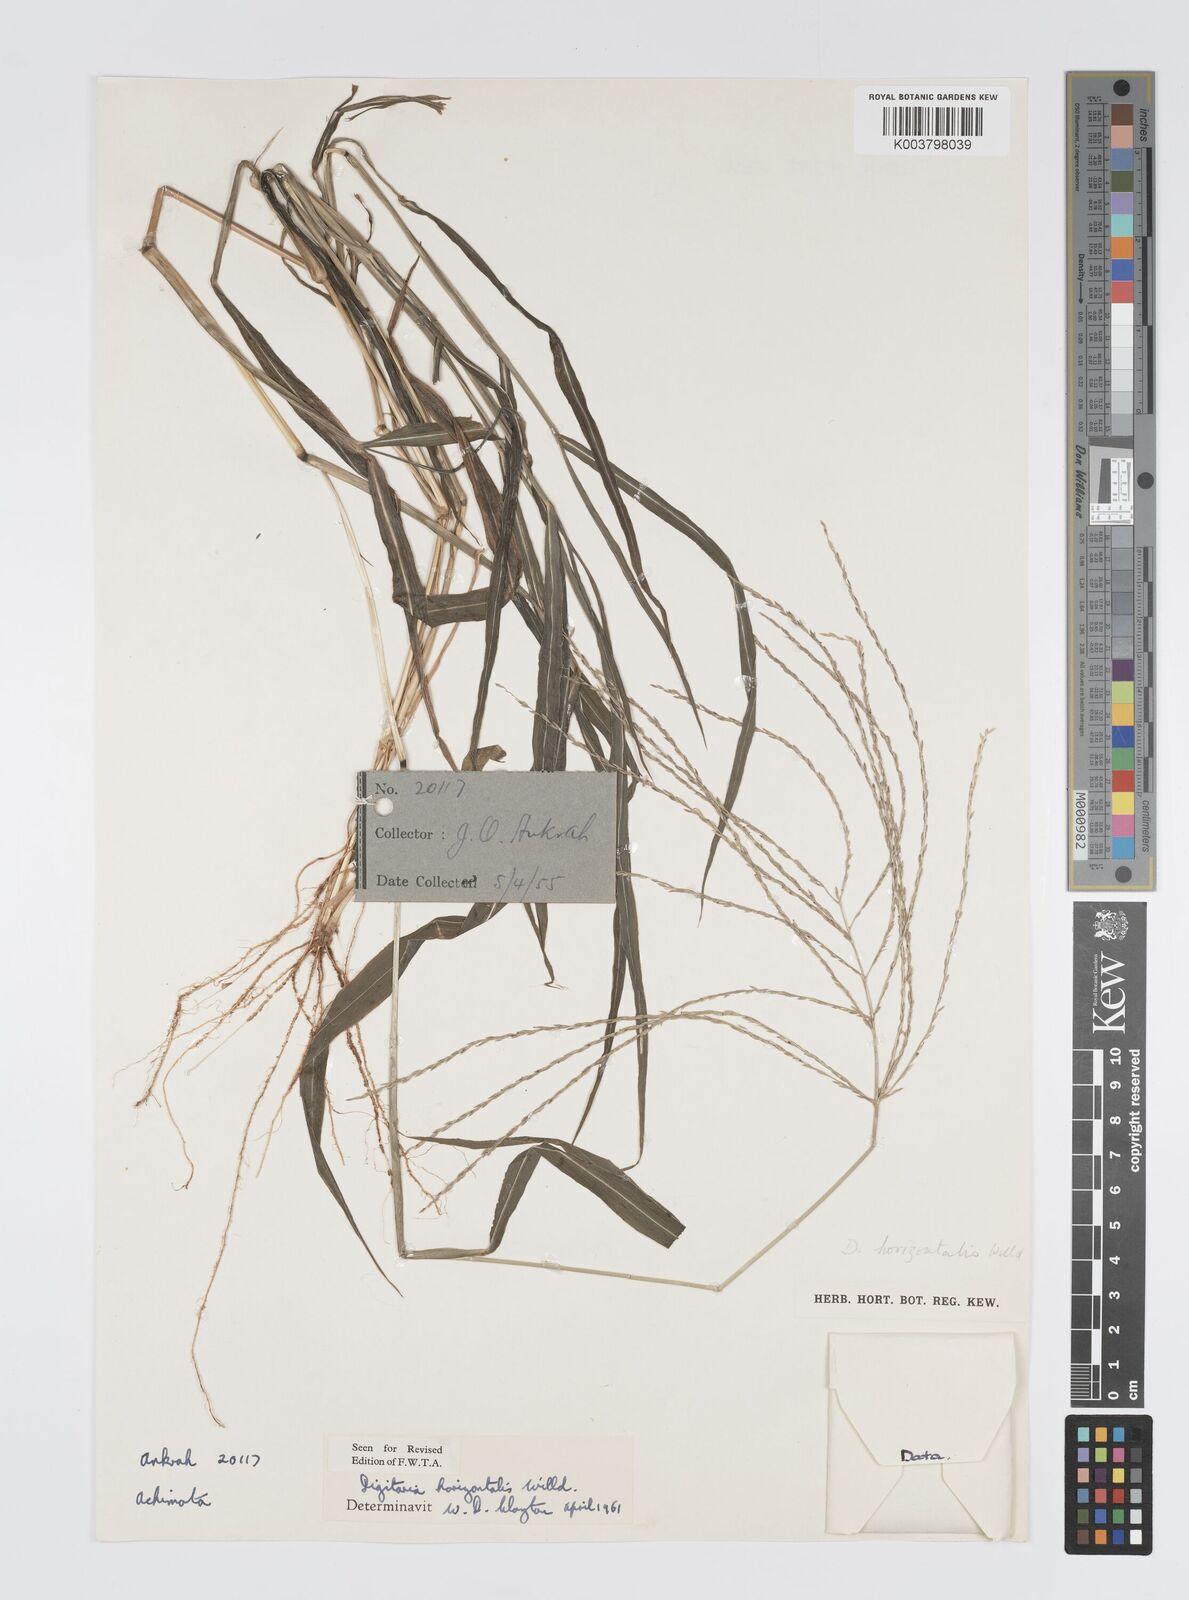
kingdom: Plantae
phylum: Tracheophyta
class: Liliopsida
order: Poales
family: Poaceae
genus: Digitaria
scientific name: Digitaria horizontalis
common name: Jamaican crabgrass
